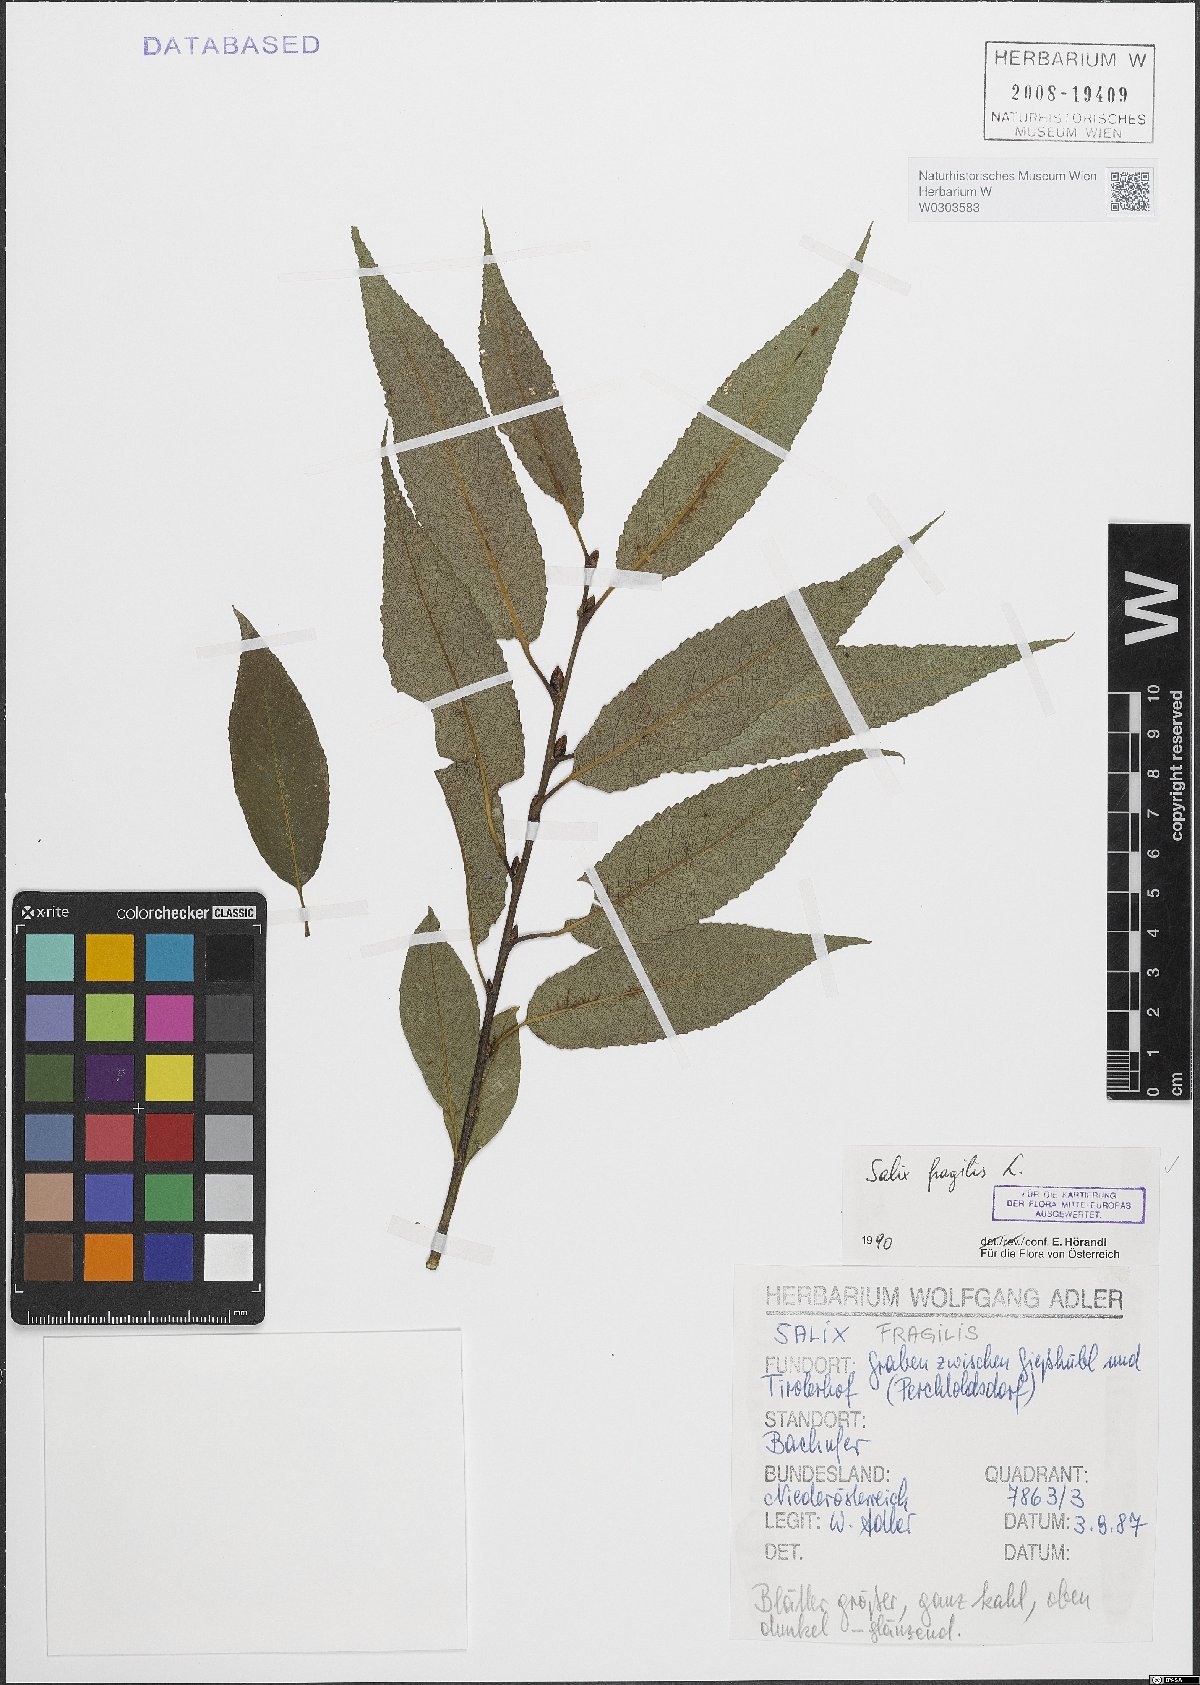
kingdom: Plantae
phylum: Tracheophyta
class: Magnoliopsida
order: Malpighiales
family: Salicaceae
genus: Salix
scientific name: Salix fragilis
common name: Crack willow
